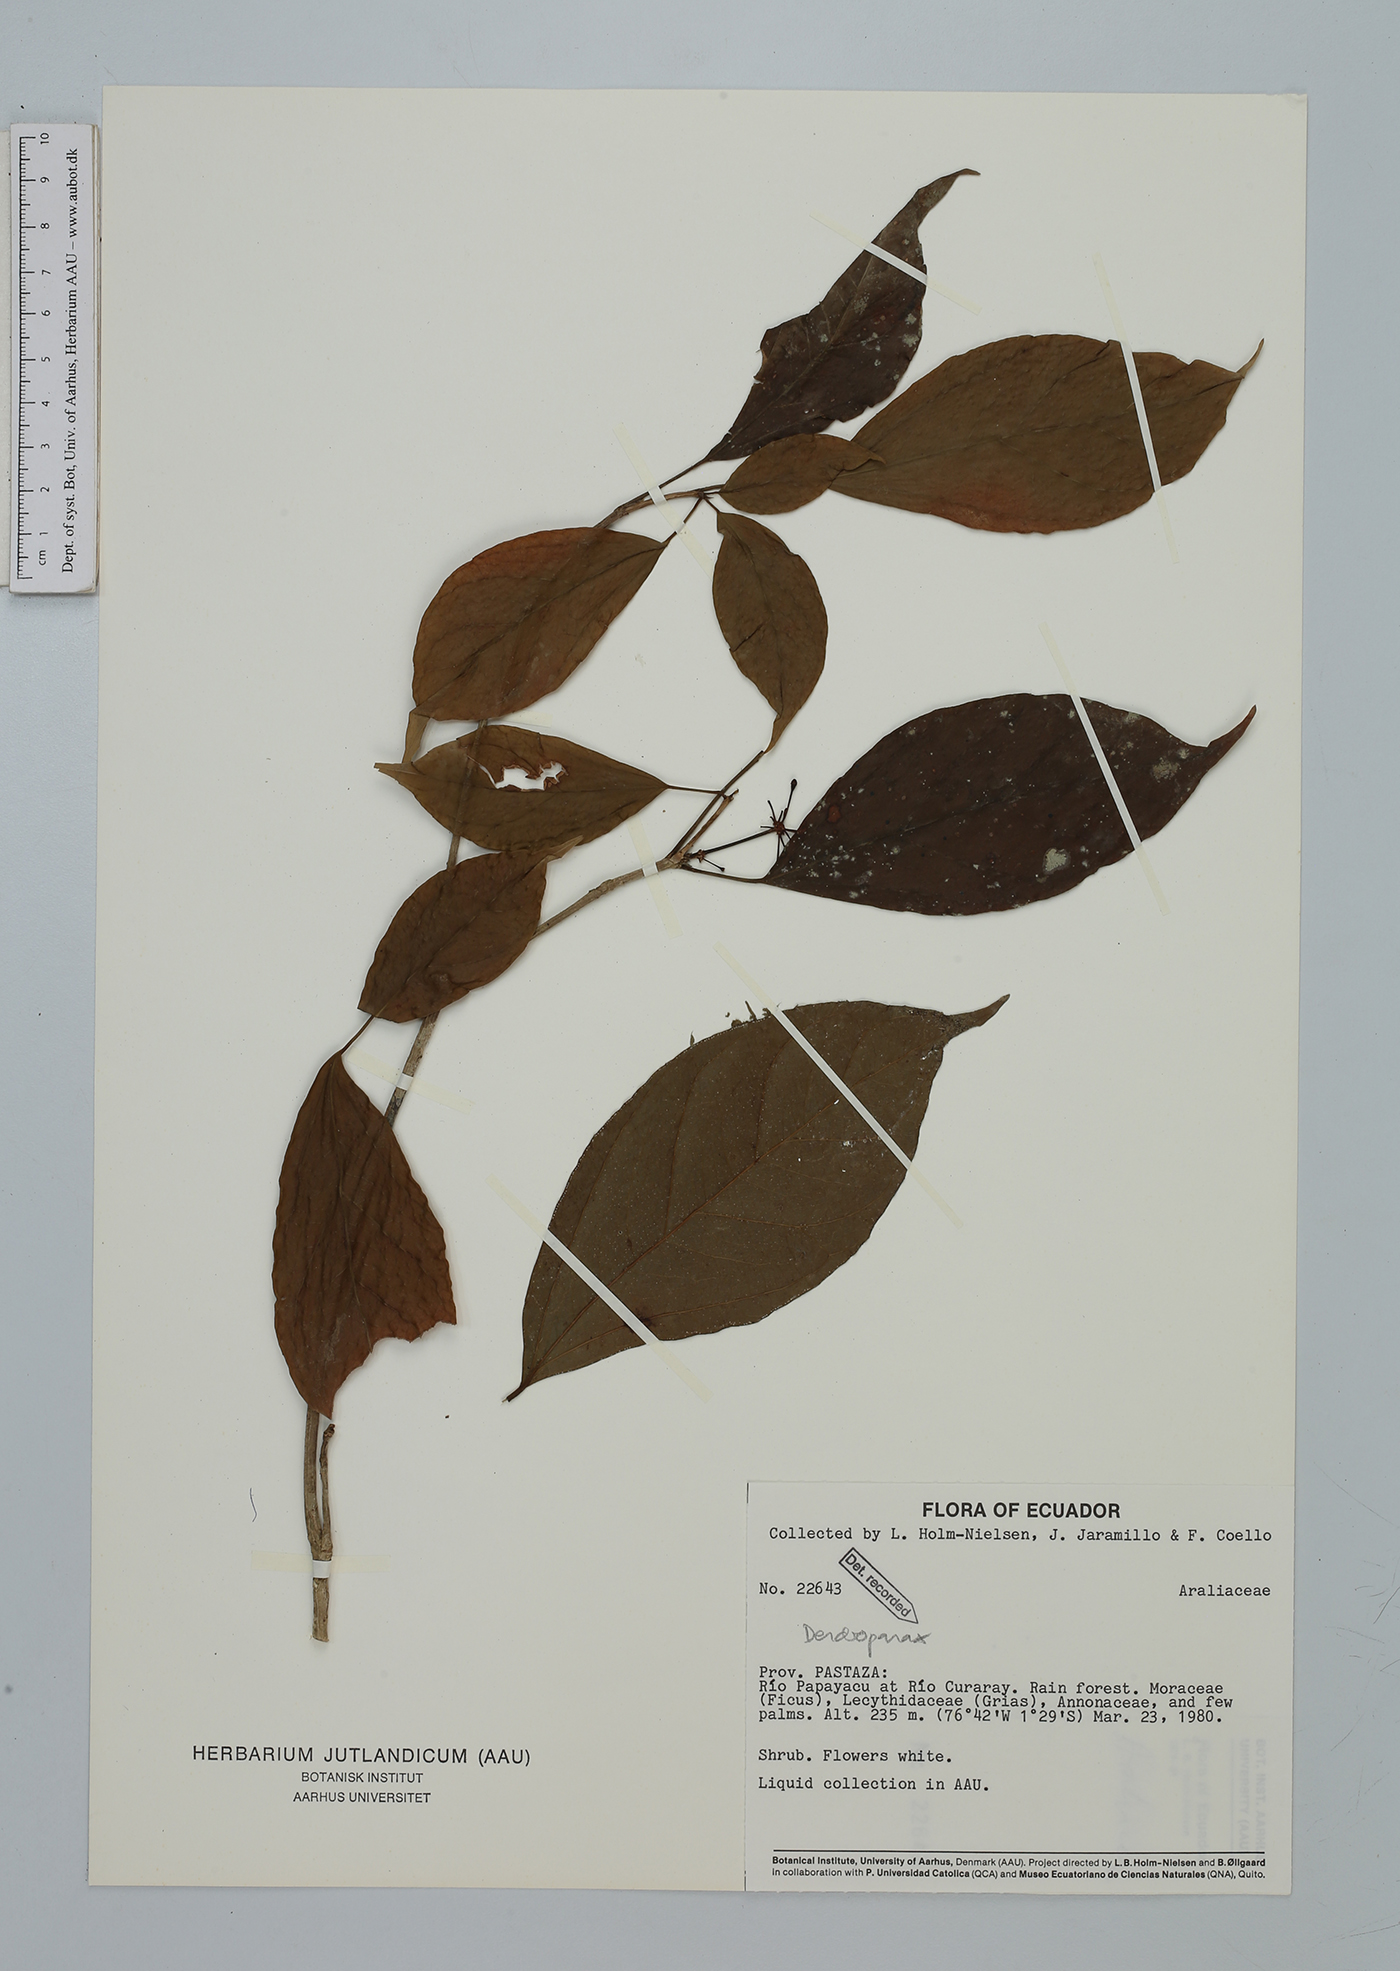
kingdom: Plantae
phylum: Tracheophyta
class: Magnoliopsida
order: Apiales
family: Araliaceae
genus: Dendropanax
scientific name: Dendropanax
